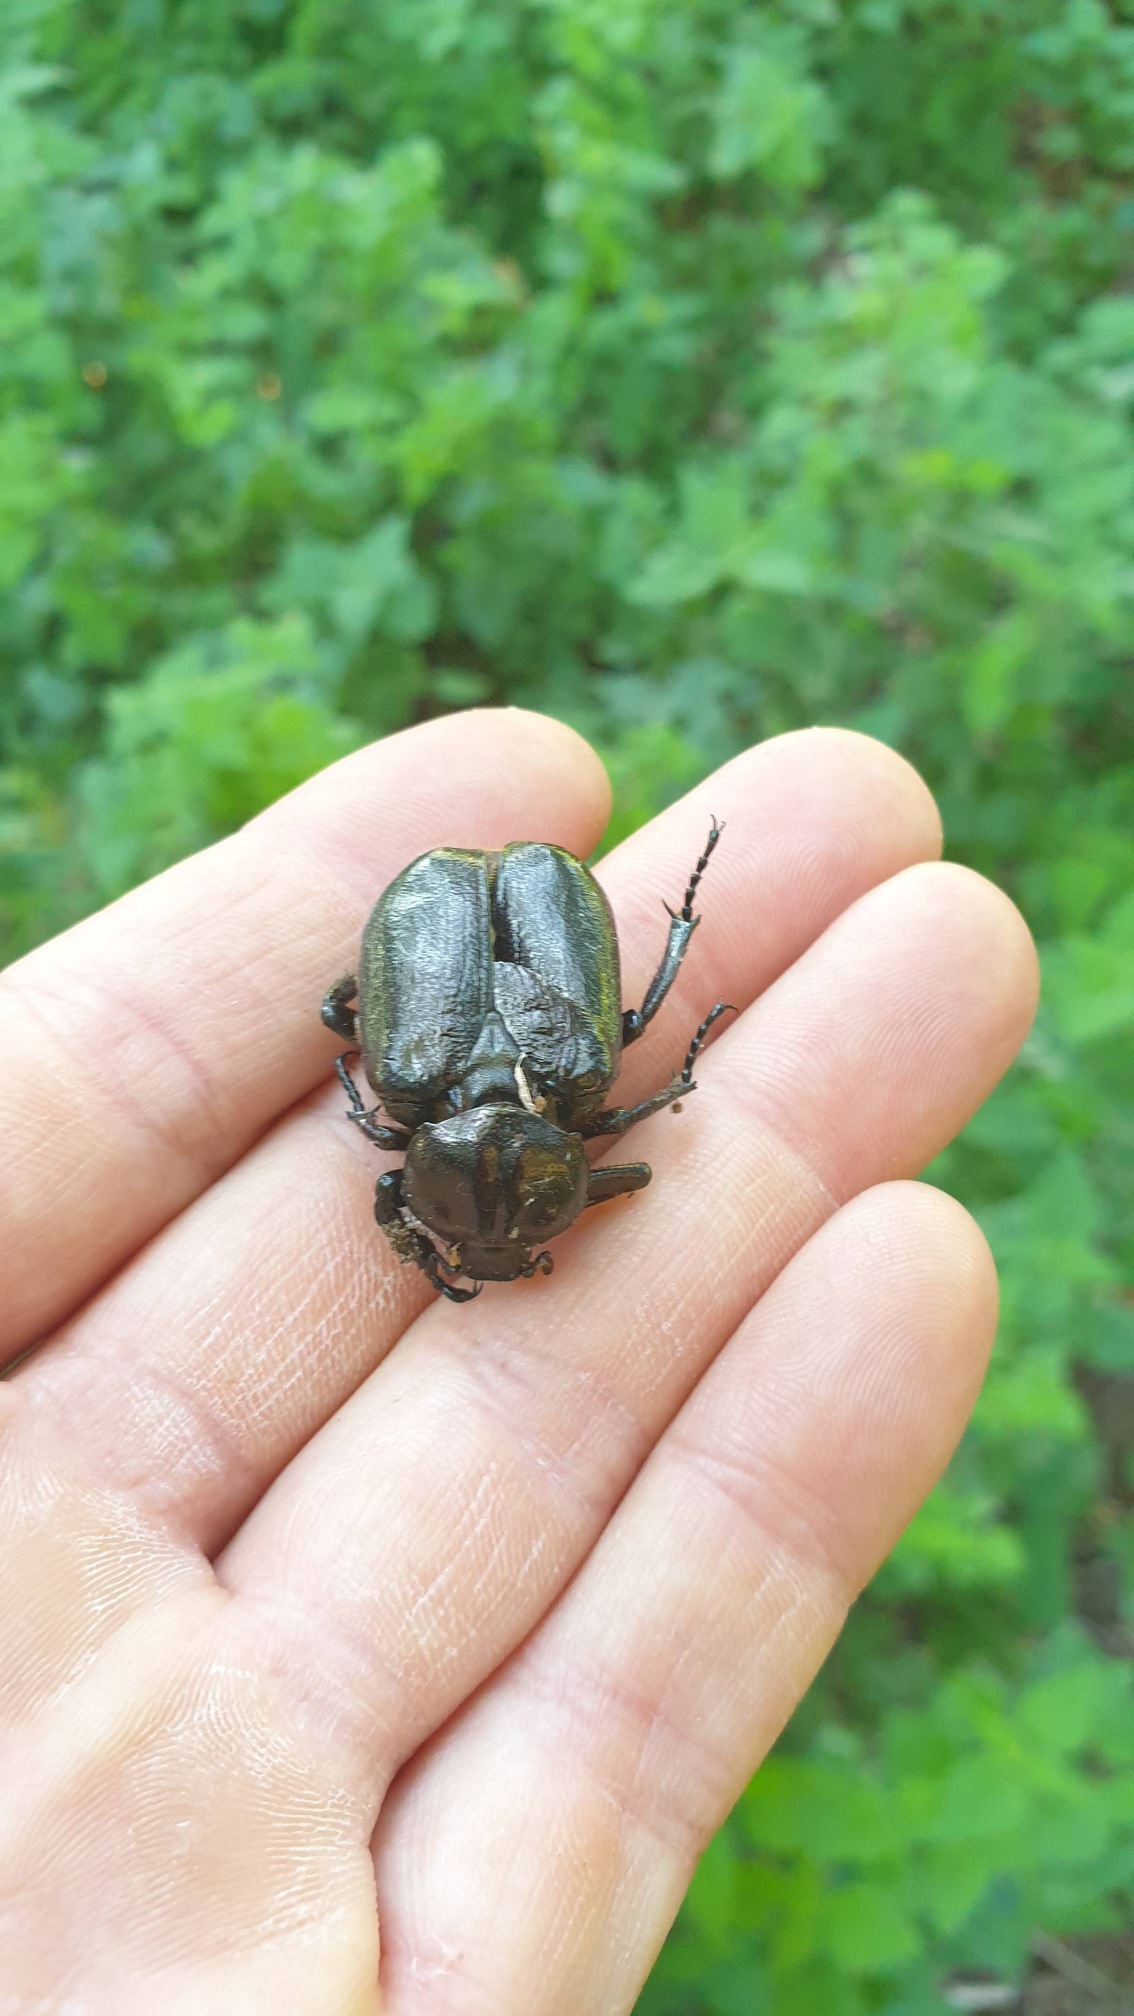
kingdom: Animalia
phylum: Arthropoda
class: Insecta
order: Coleoptera
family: Scarabaeidae
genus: Osmoderma
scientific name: Osmoderma eremita
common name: Eremit
